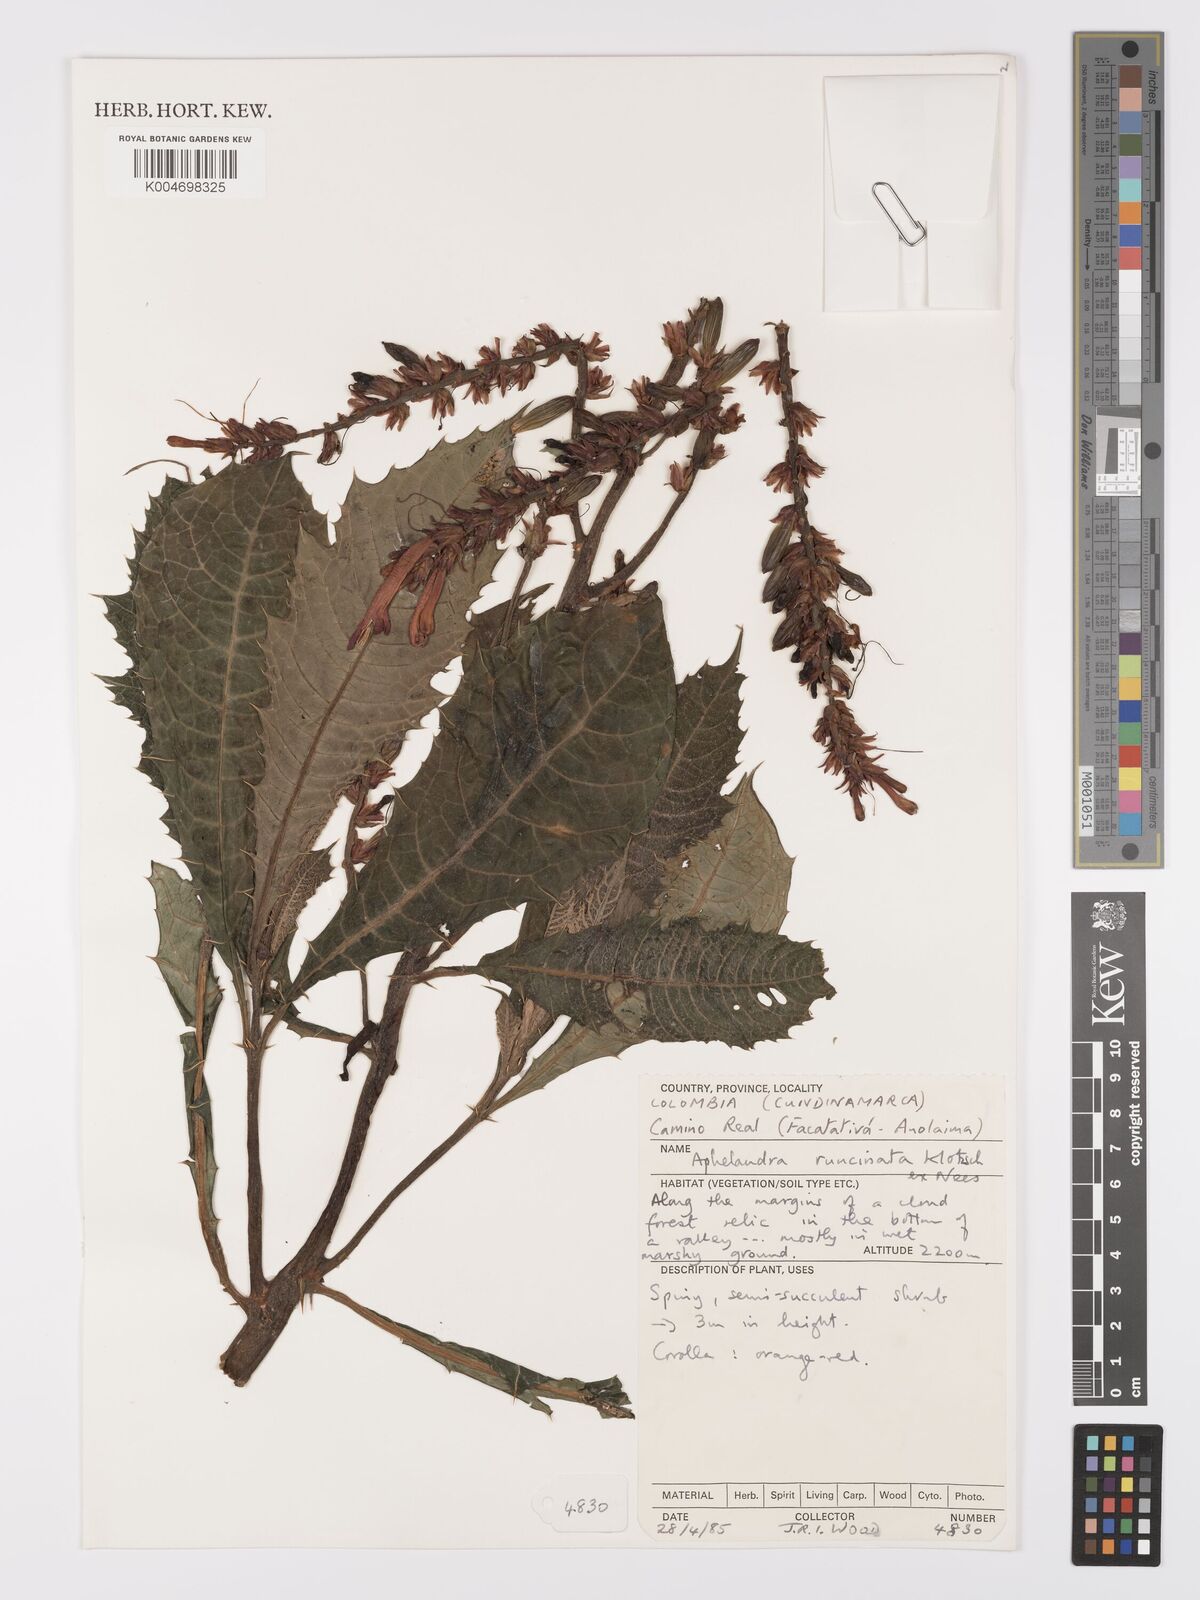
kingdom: Plantae
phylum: Tracheophyta
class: Magnoliopsida
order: Lamiales
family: Acanthaceae
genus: Aphelandra
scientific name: Aphelandra runcinata
